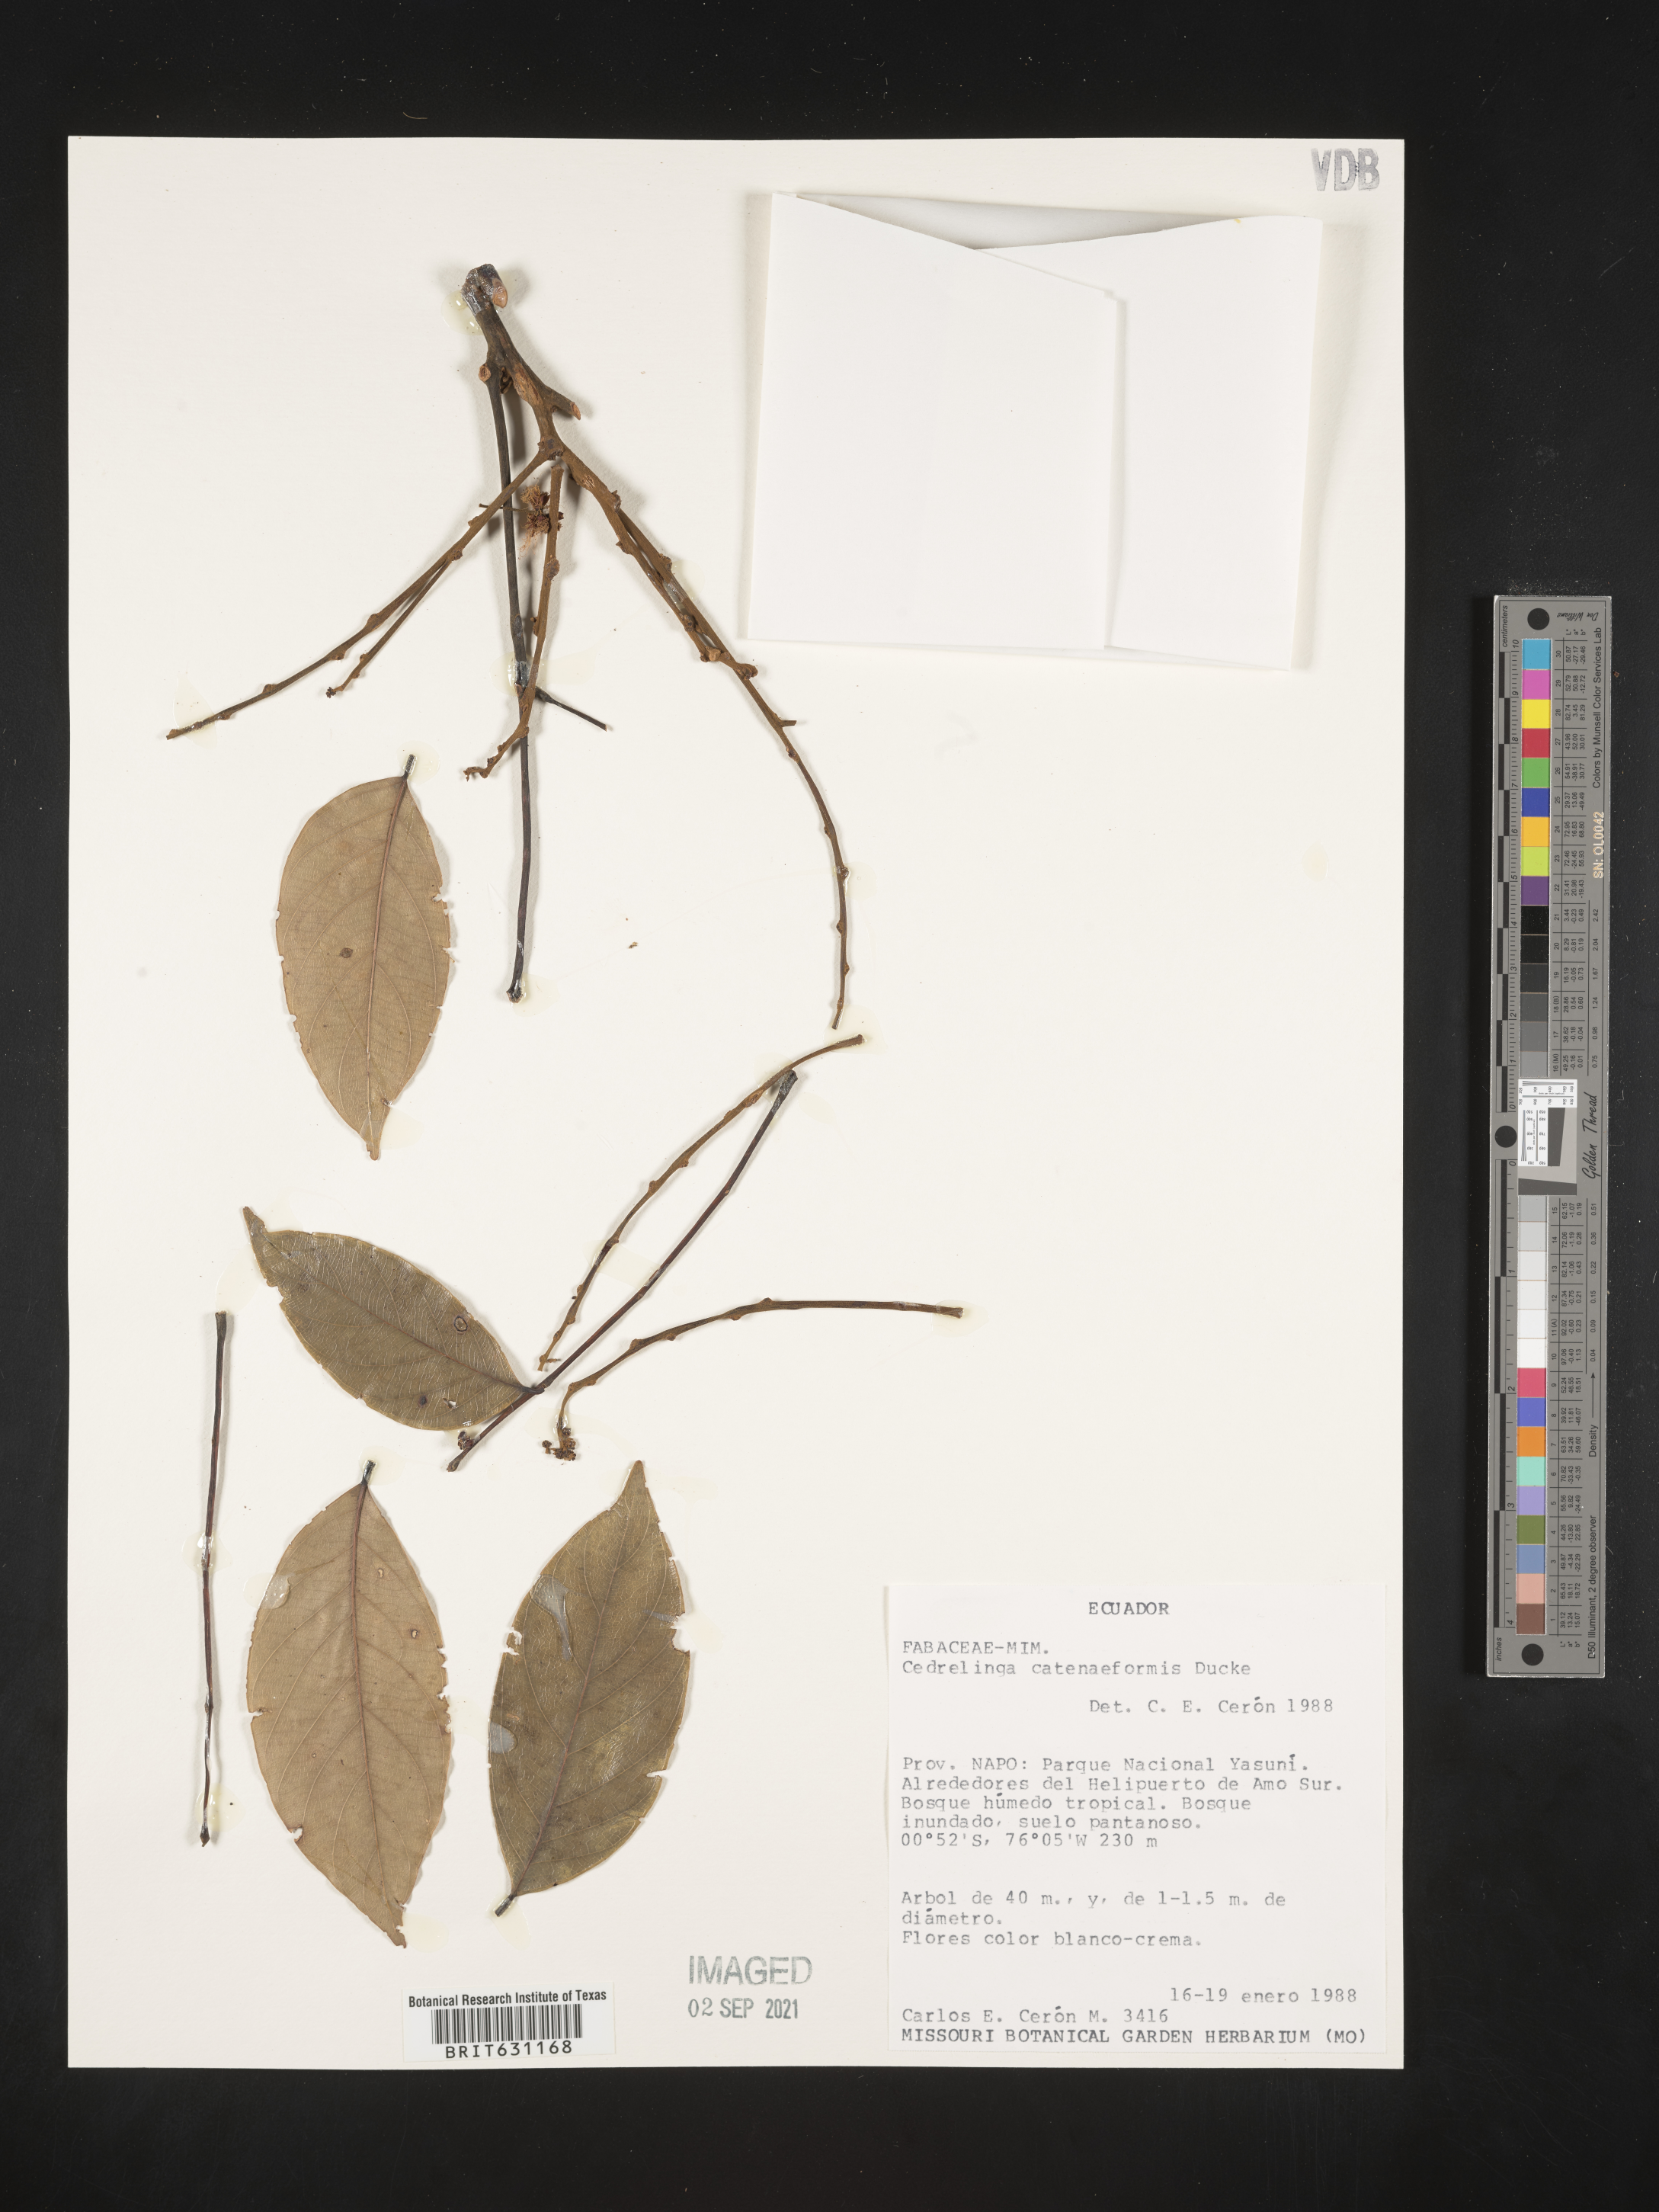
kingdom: Plantae
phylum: Tracheophyta
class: Magnoliopsida
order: Fabales
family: Fabaceae
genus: Cedrelinga
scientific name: Cedrelinga cateniformis
